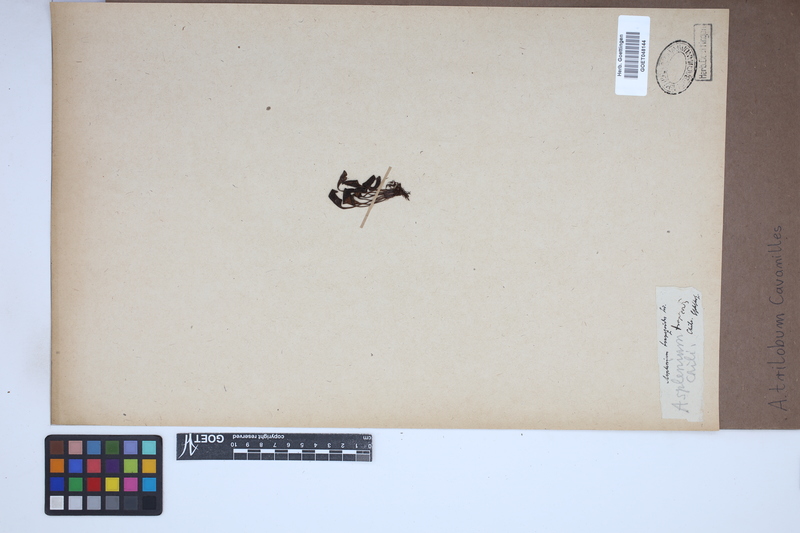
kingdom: Plantae
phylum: Tracheophyta
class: Polypodiopsida
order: Polypodiales
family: Aspleniaceae
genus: Asplenium
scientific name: Asplenium trilobum
